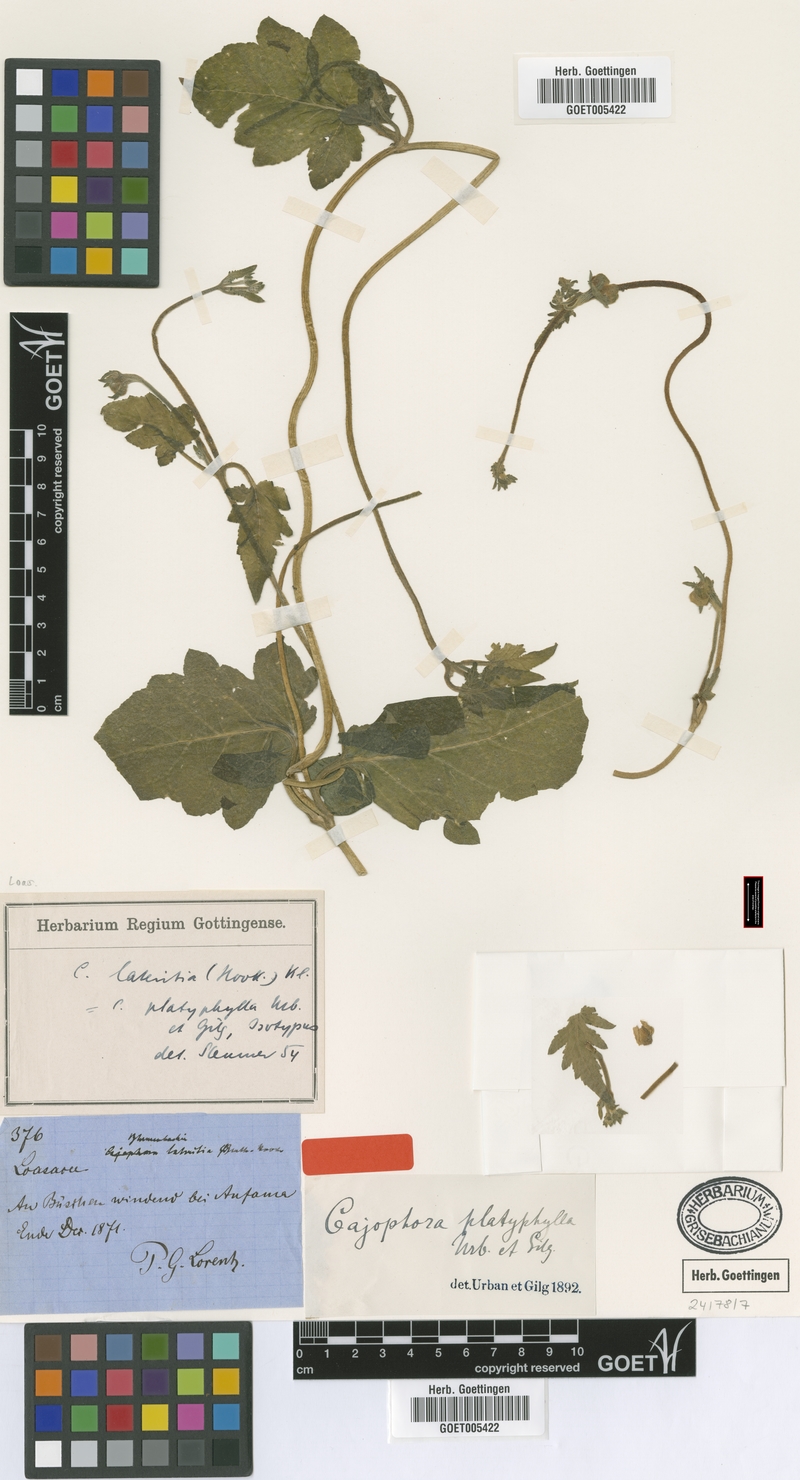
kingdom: Plantae
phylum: Tracheophyta
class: Magnoliopsida
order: Cornales
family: Loasaceae
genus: Caiophora
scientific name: Caiophora lateritia
